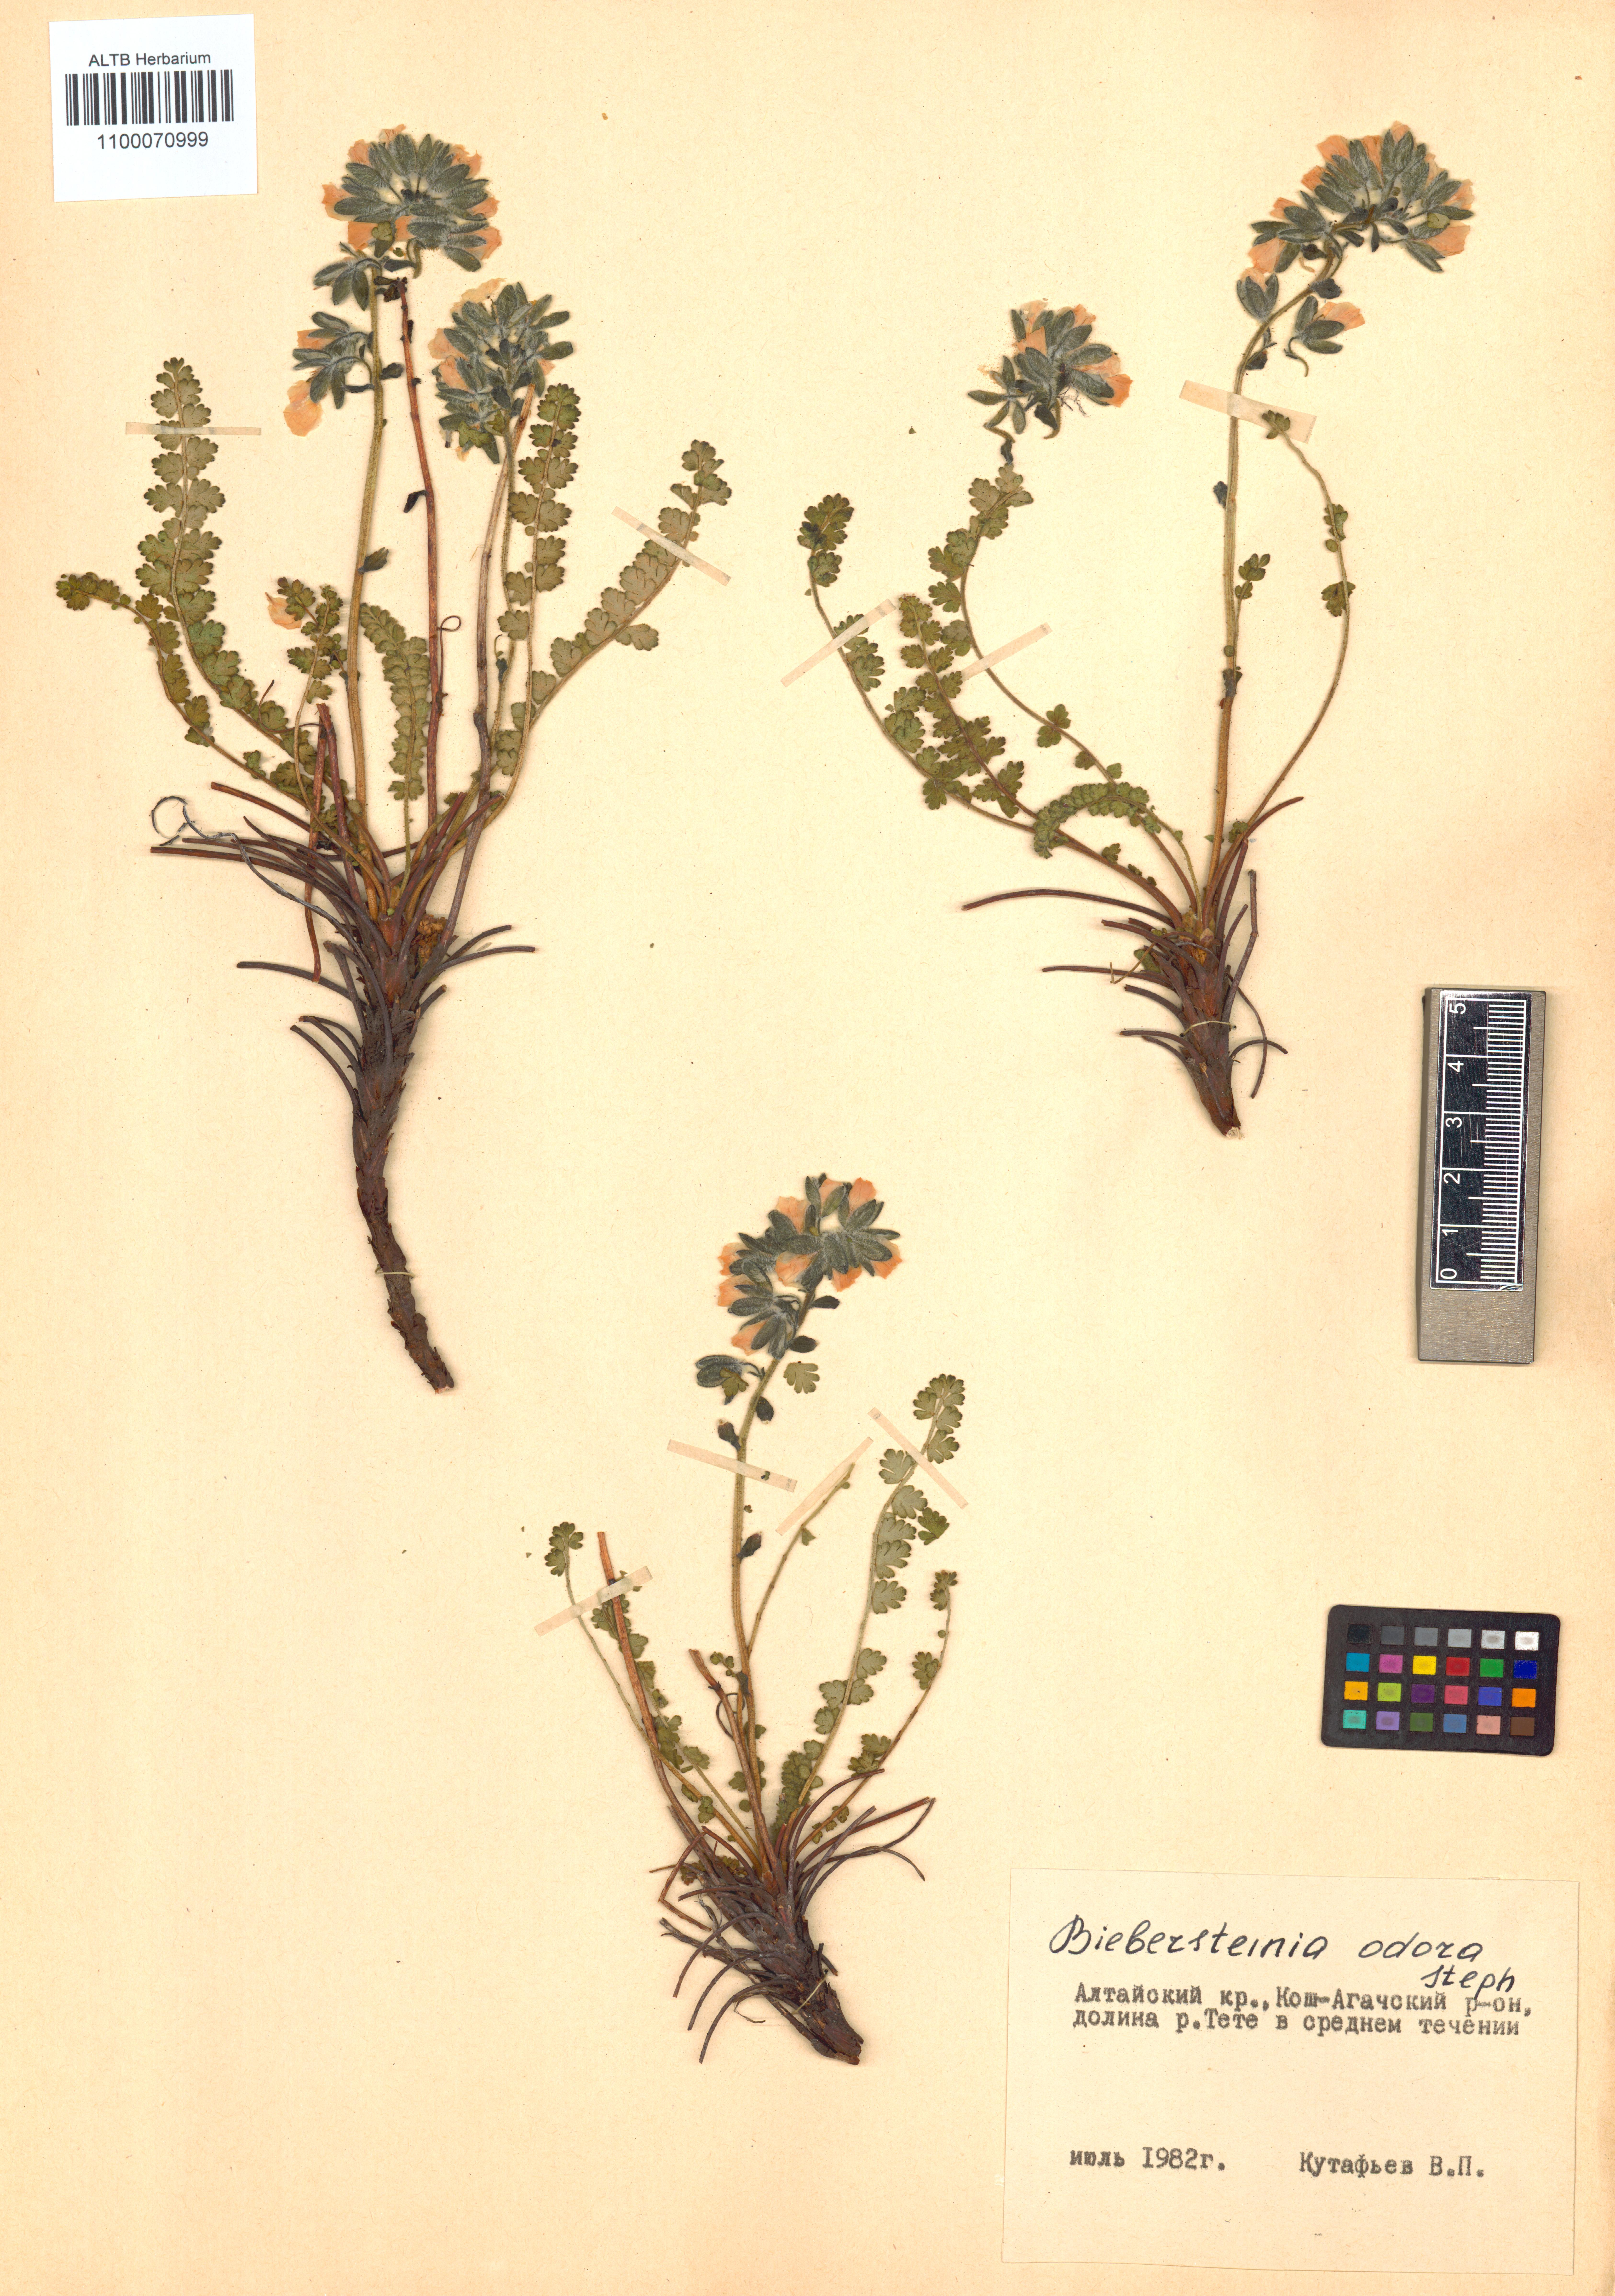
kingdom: Plantae
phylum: Tracheophyta
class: Magnoliopsida
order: Sapindales
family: Biebersteiniaceae
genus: Biebersteinia
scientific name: Biebersteinia odora
